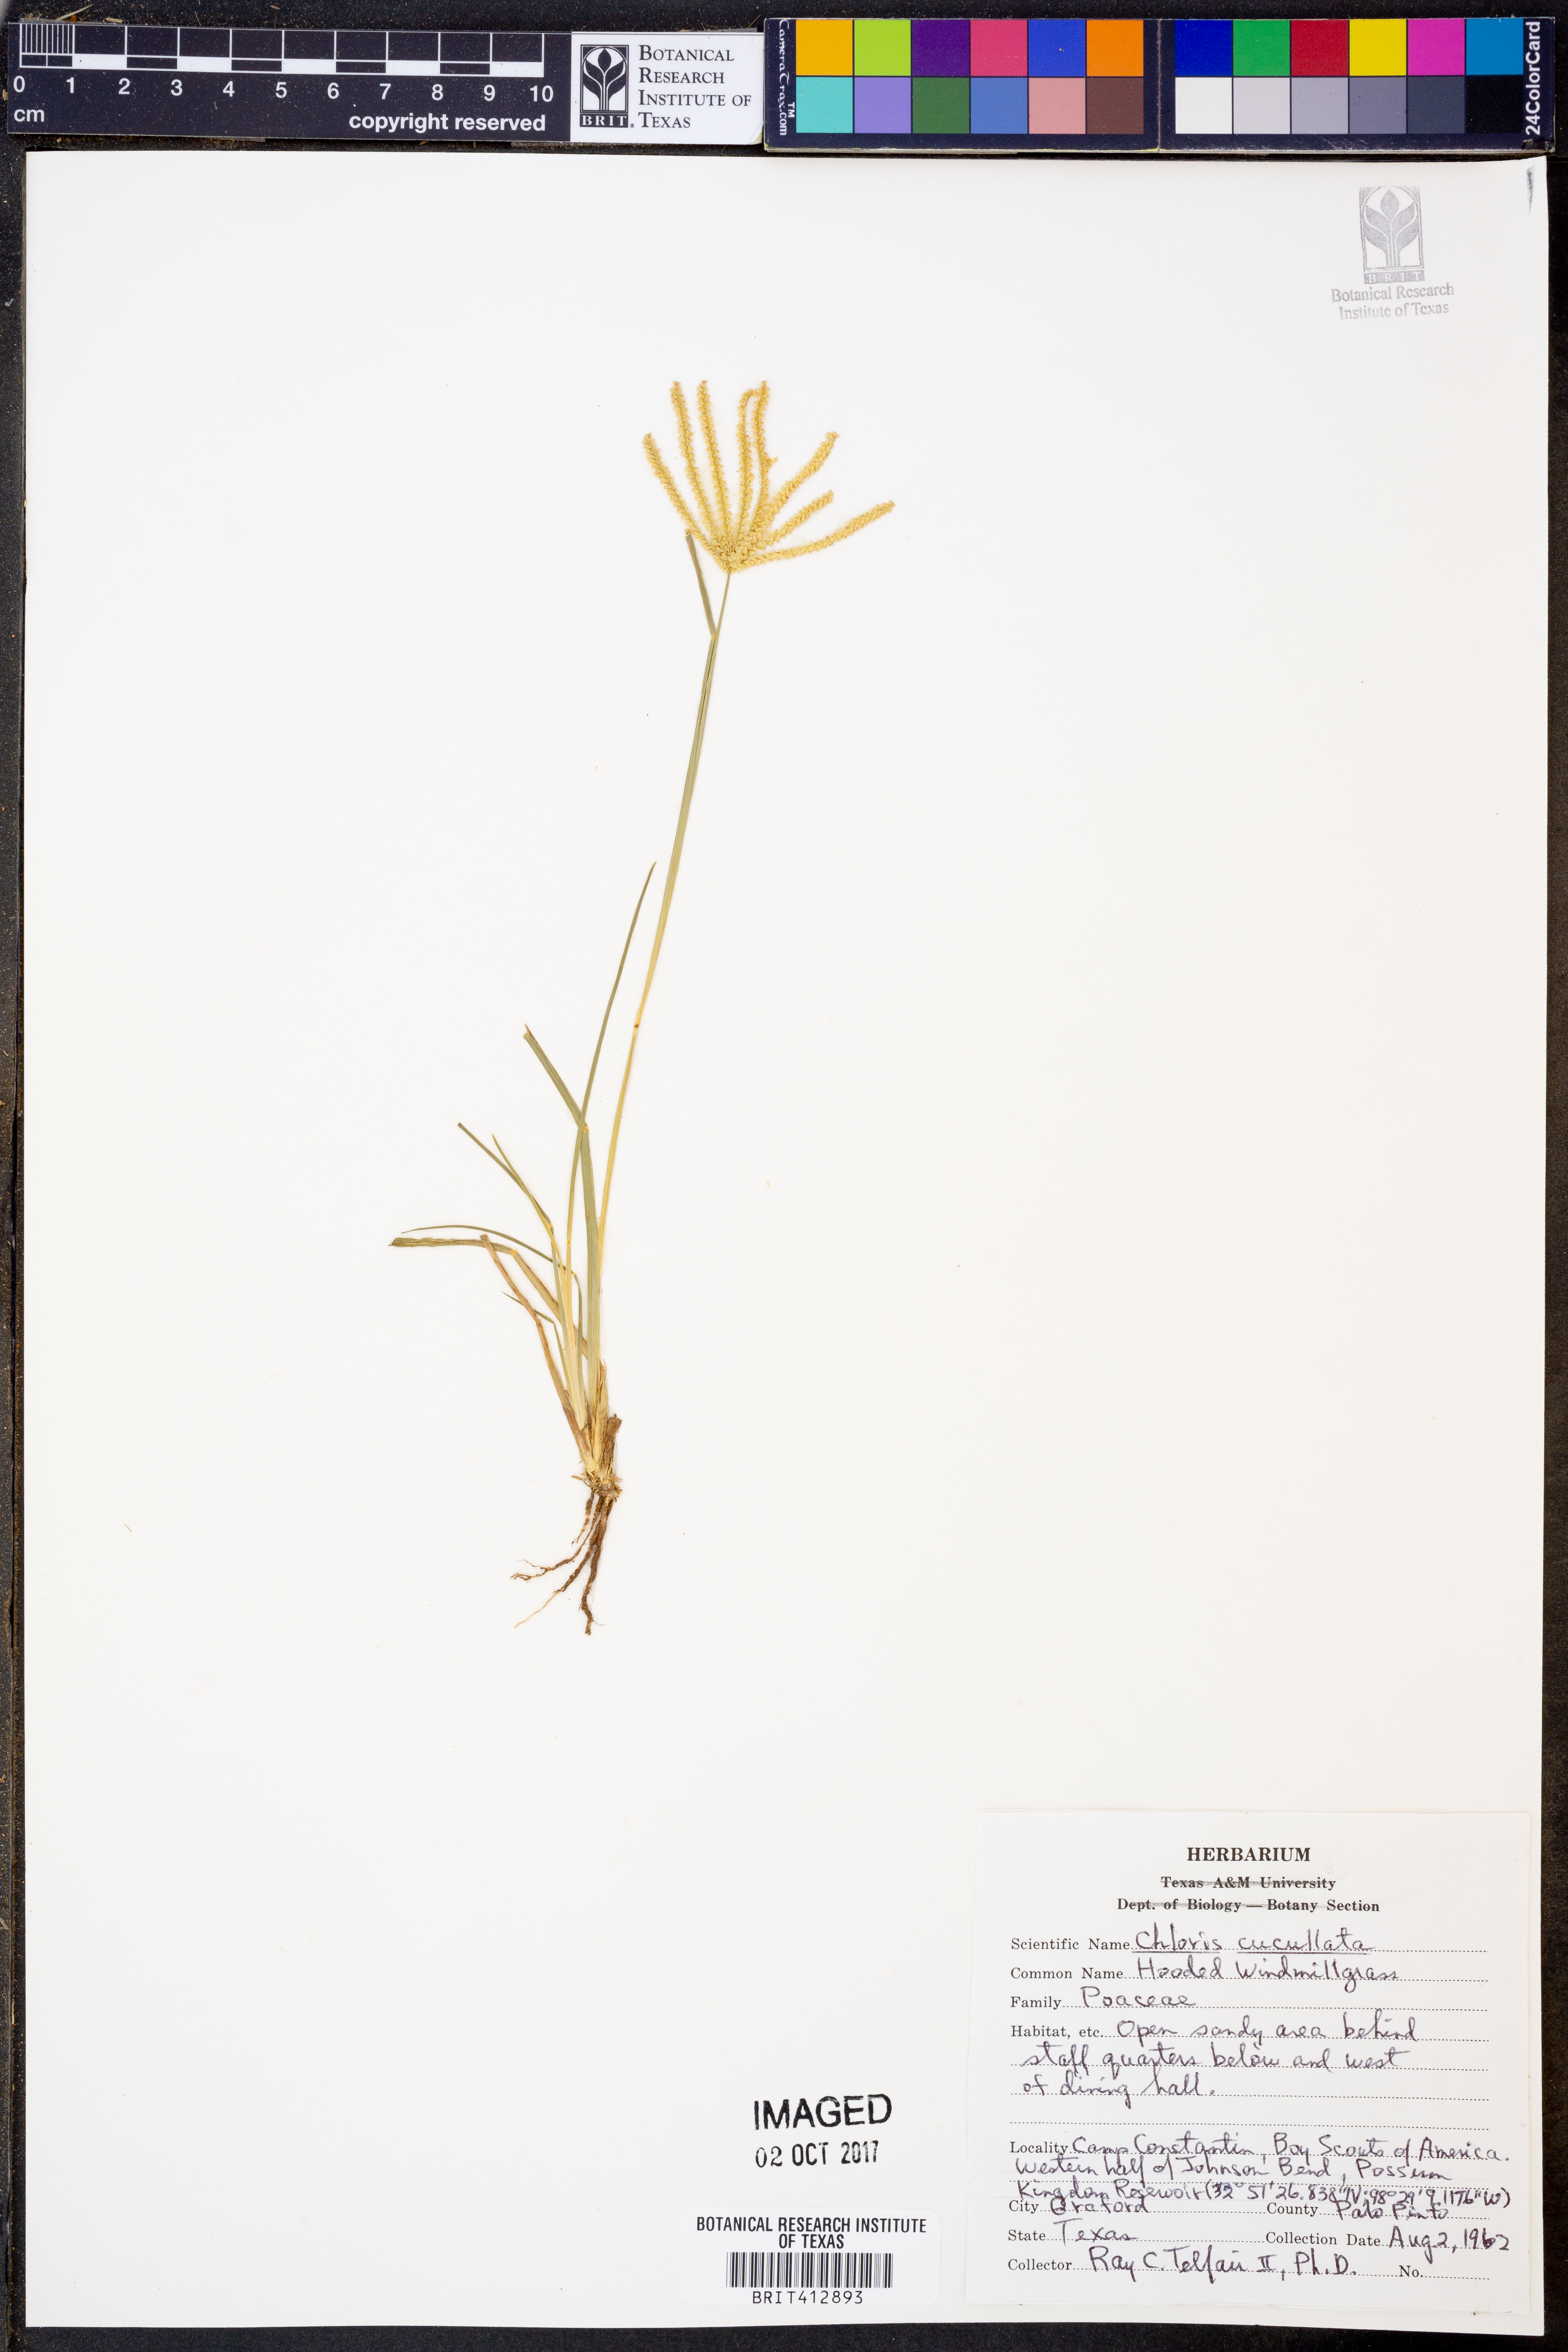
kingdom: Plantae
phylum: Tracheophyta
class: Liliopsida
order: Poales
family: Poaceae
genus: Chloris
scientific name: Chloris cucullata
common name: Hooded windmill grass
